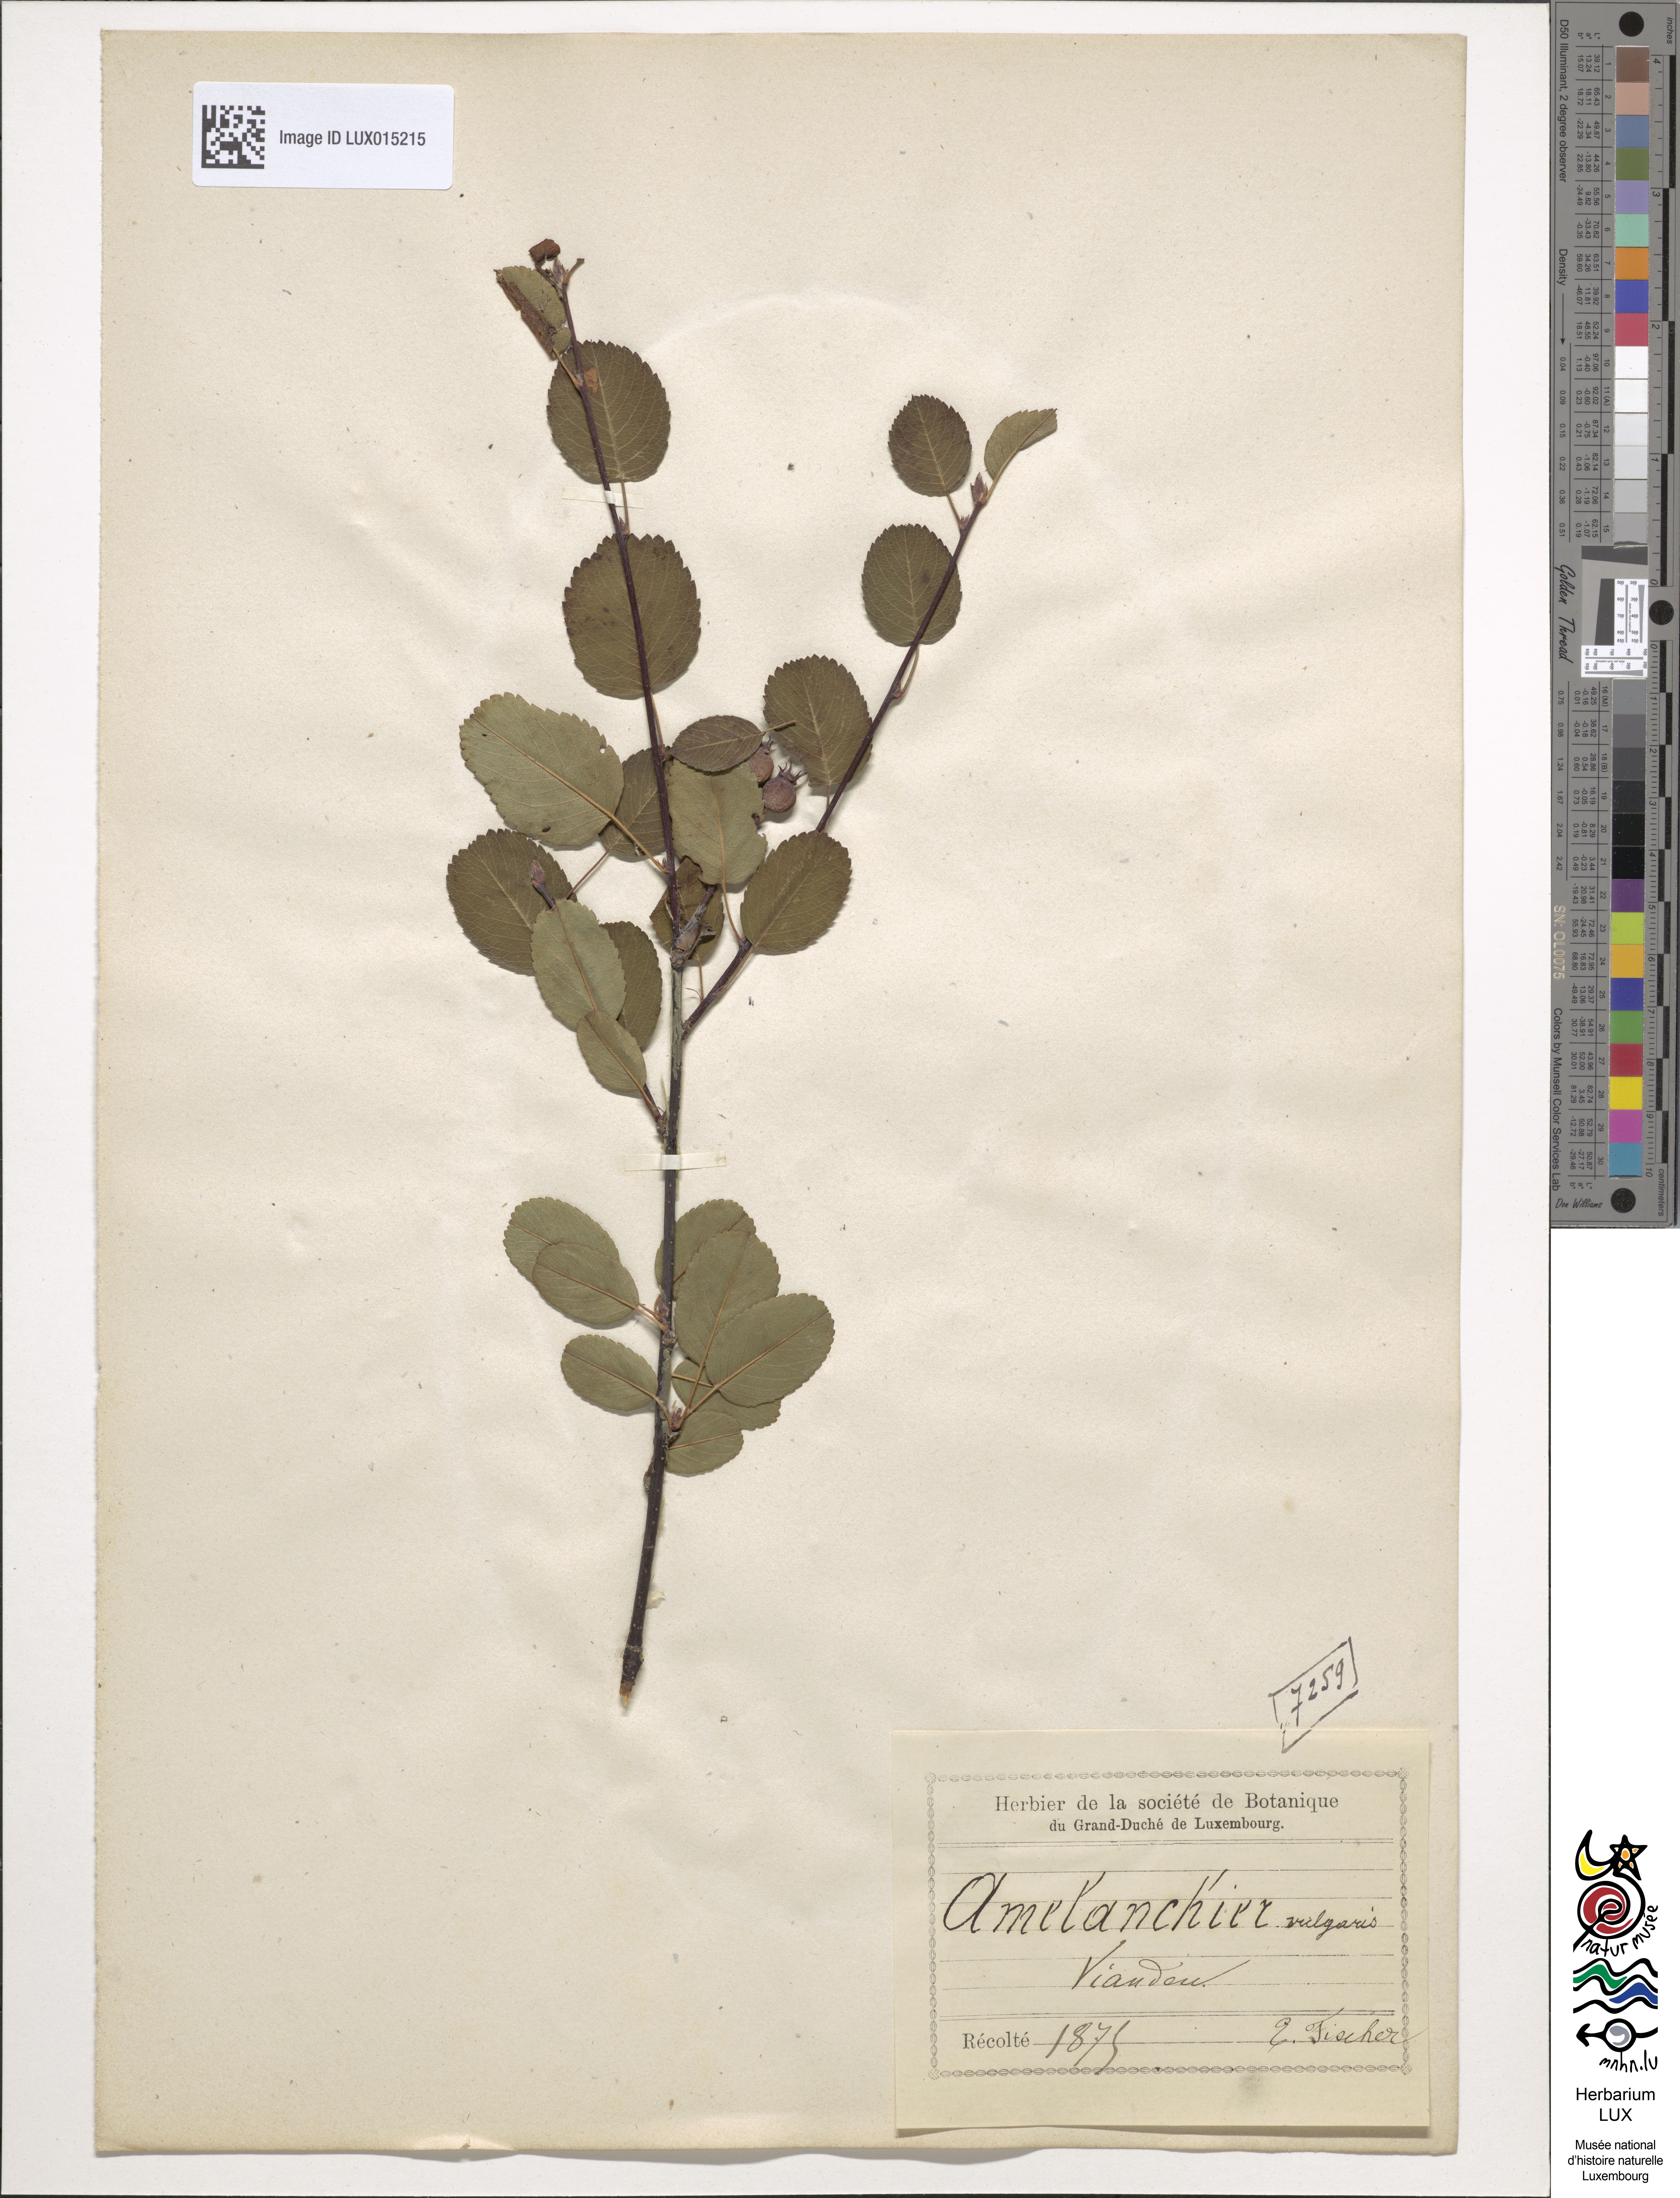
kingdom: Plantae
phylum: Tracheophyta
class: Magnoliopsida
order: Rosales
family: Rosaceae
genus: Amelanchier
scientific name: Amelanchier ovalis
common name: Serviceberry
